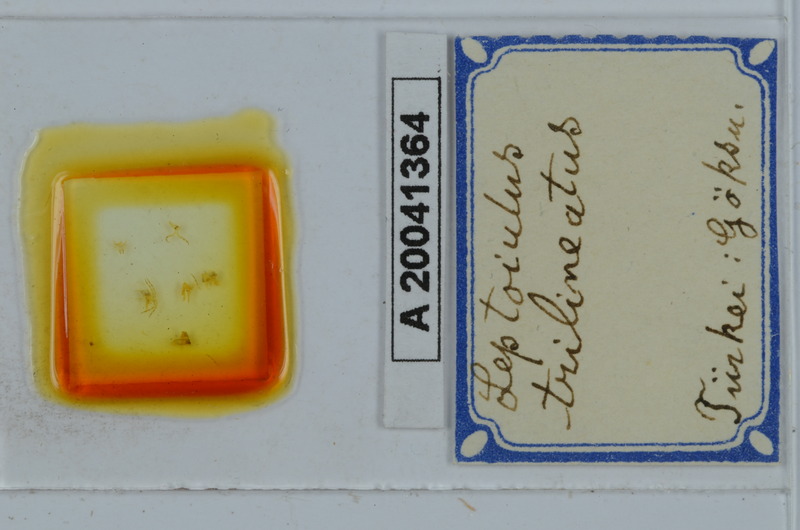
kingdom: Animalia
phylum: Arthropoda
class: Diplopoda
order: Julida
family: Julidae
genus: Leptoiulus
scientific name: Leptoiulus trilineatus
